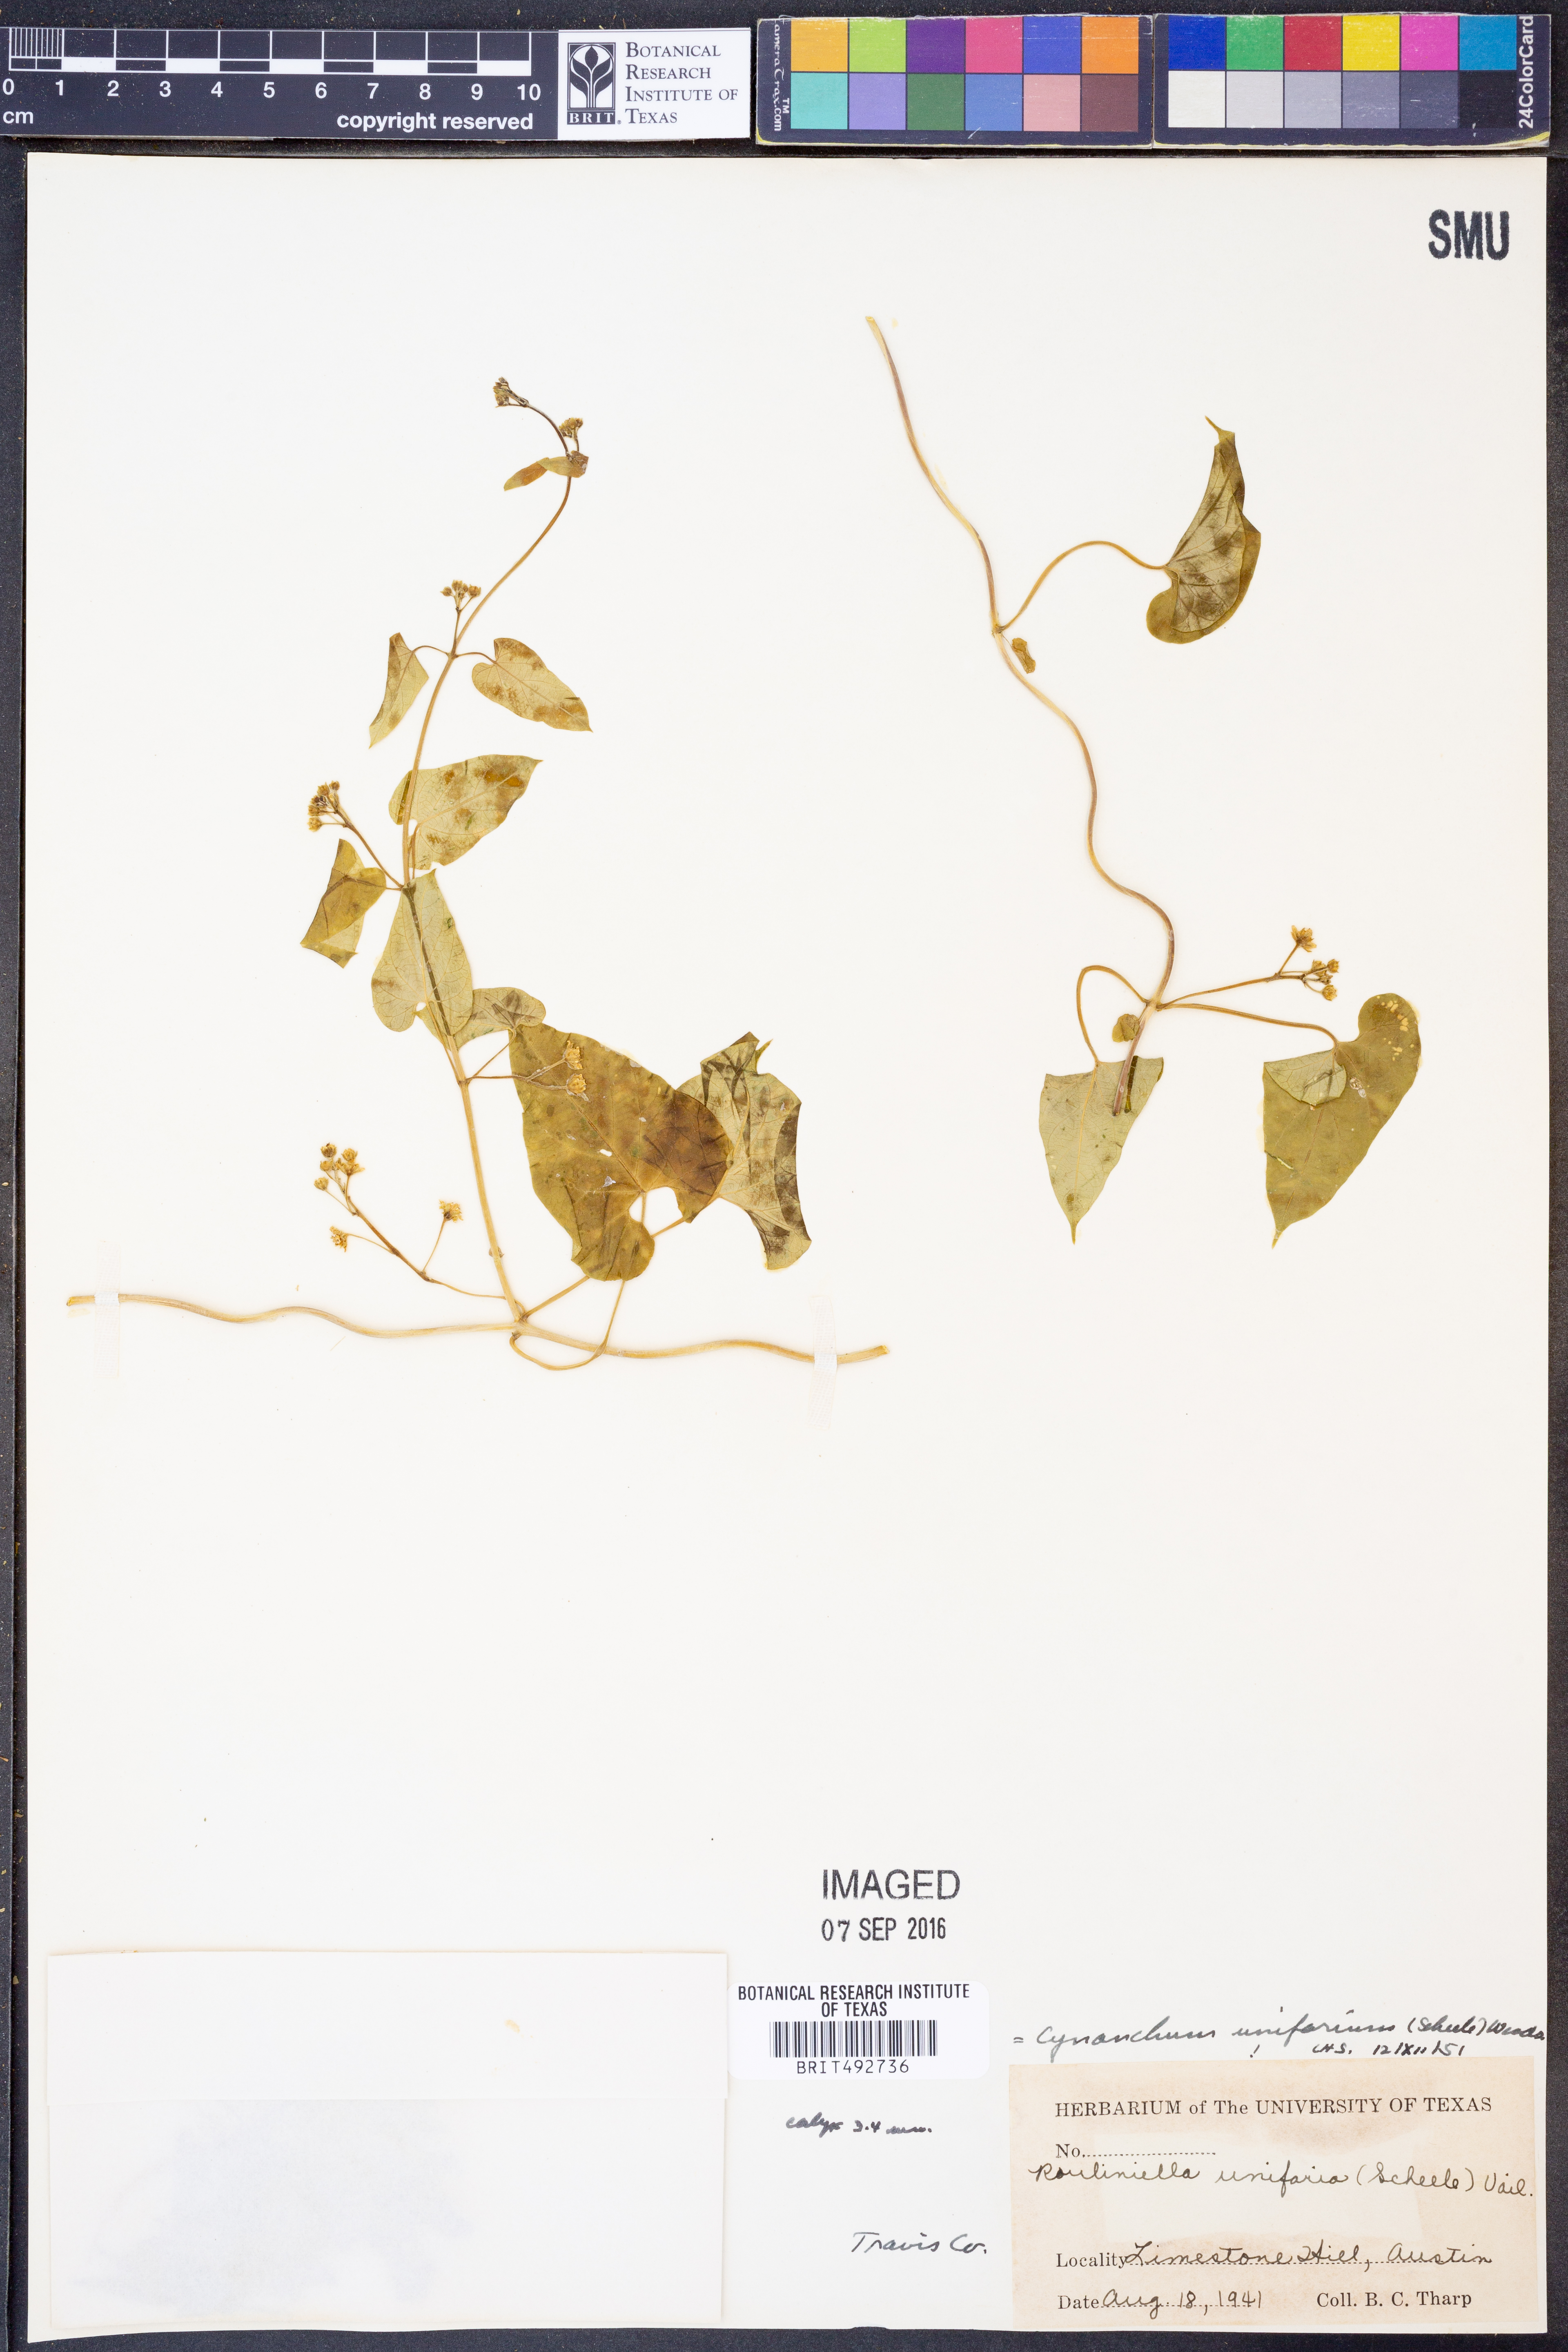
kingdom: Plantae
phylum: Tracheophyta
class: Magnoliopsida
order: Gentianales
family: Apocynaceae
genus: Cynanchum
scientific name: Cynanchum racemosum
